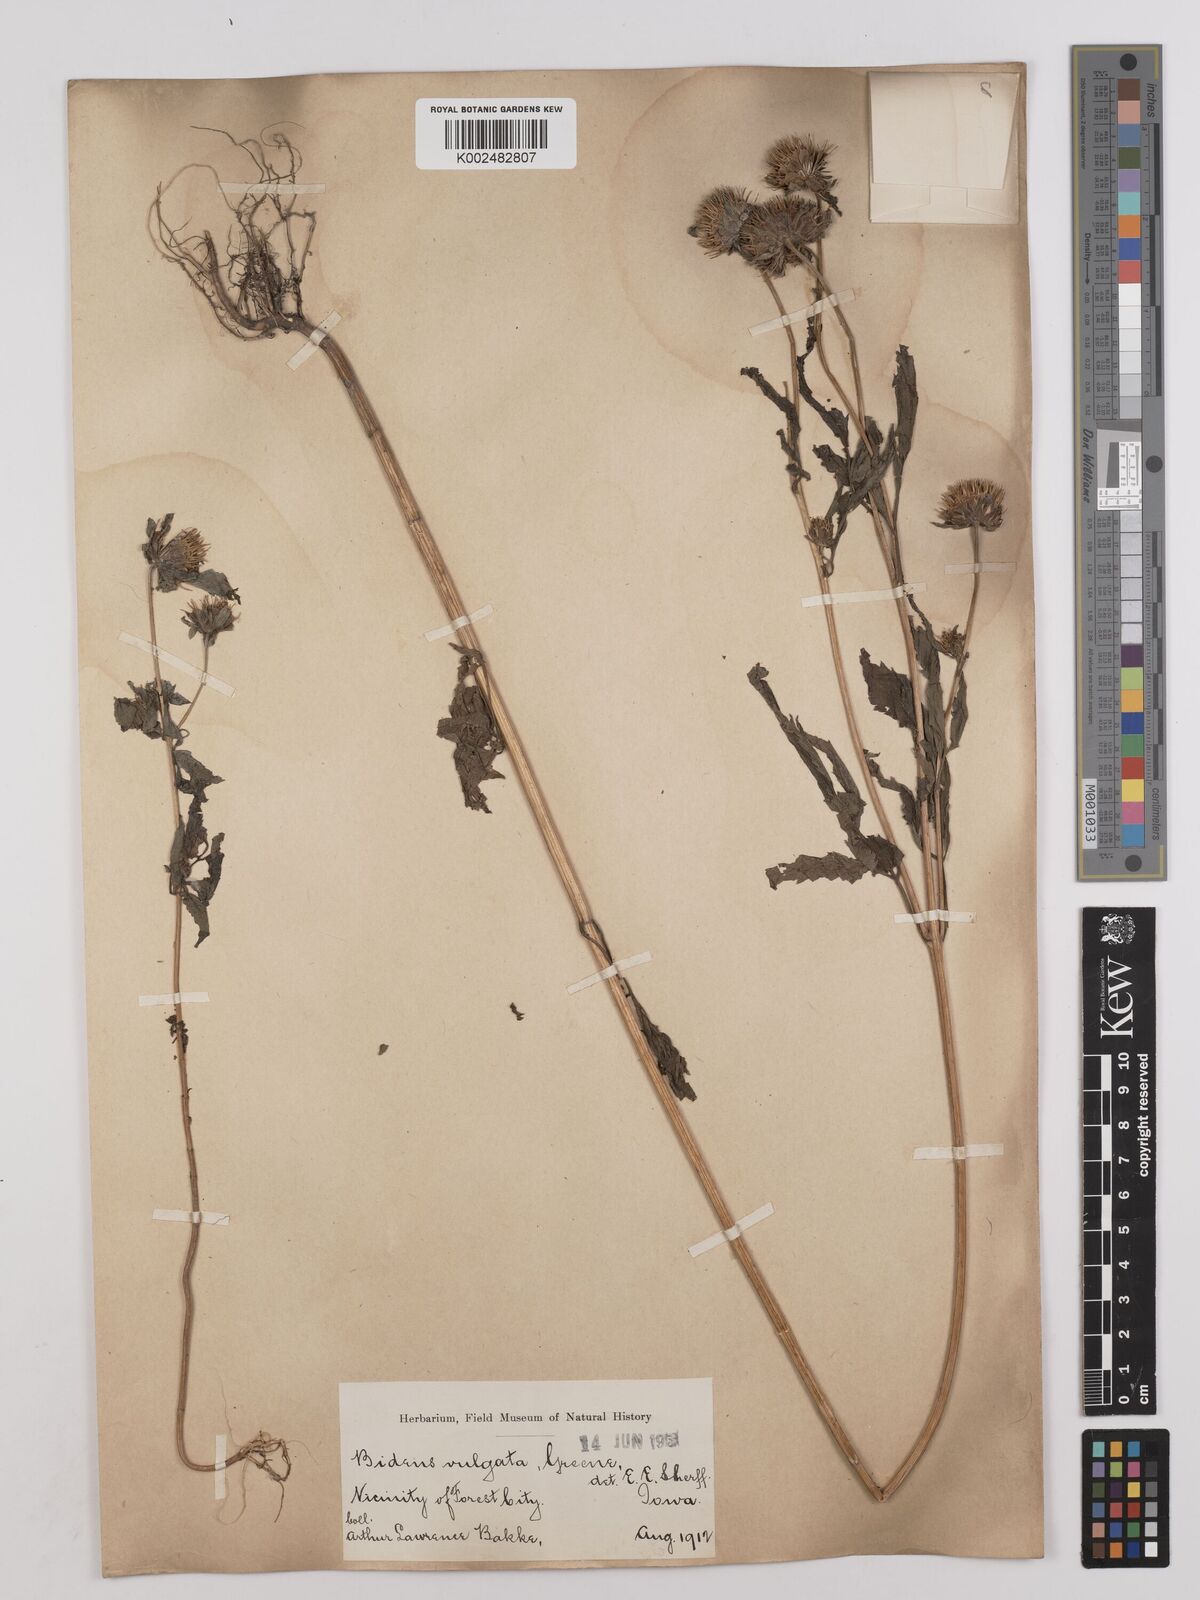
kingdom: Plantae
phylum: Tracheophyta
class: Magnoliopsida
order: Asterales
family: Asteraceae
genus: Bidens
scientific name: Bidens vulgata
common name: Tall beggarticks
